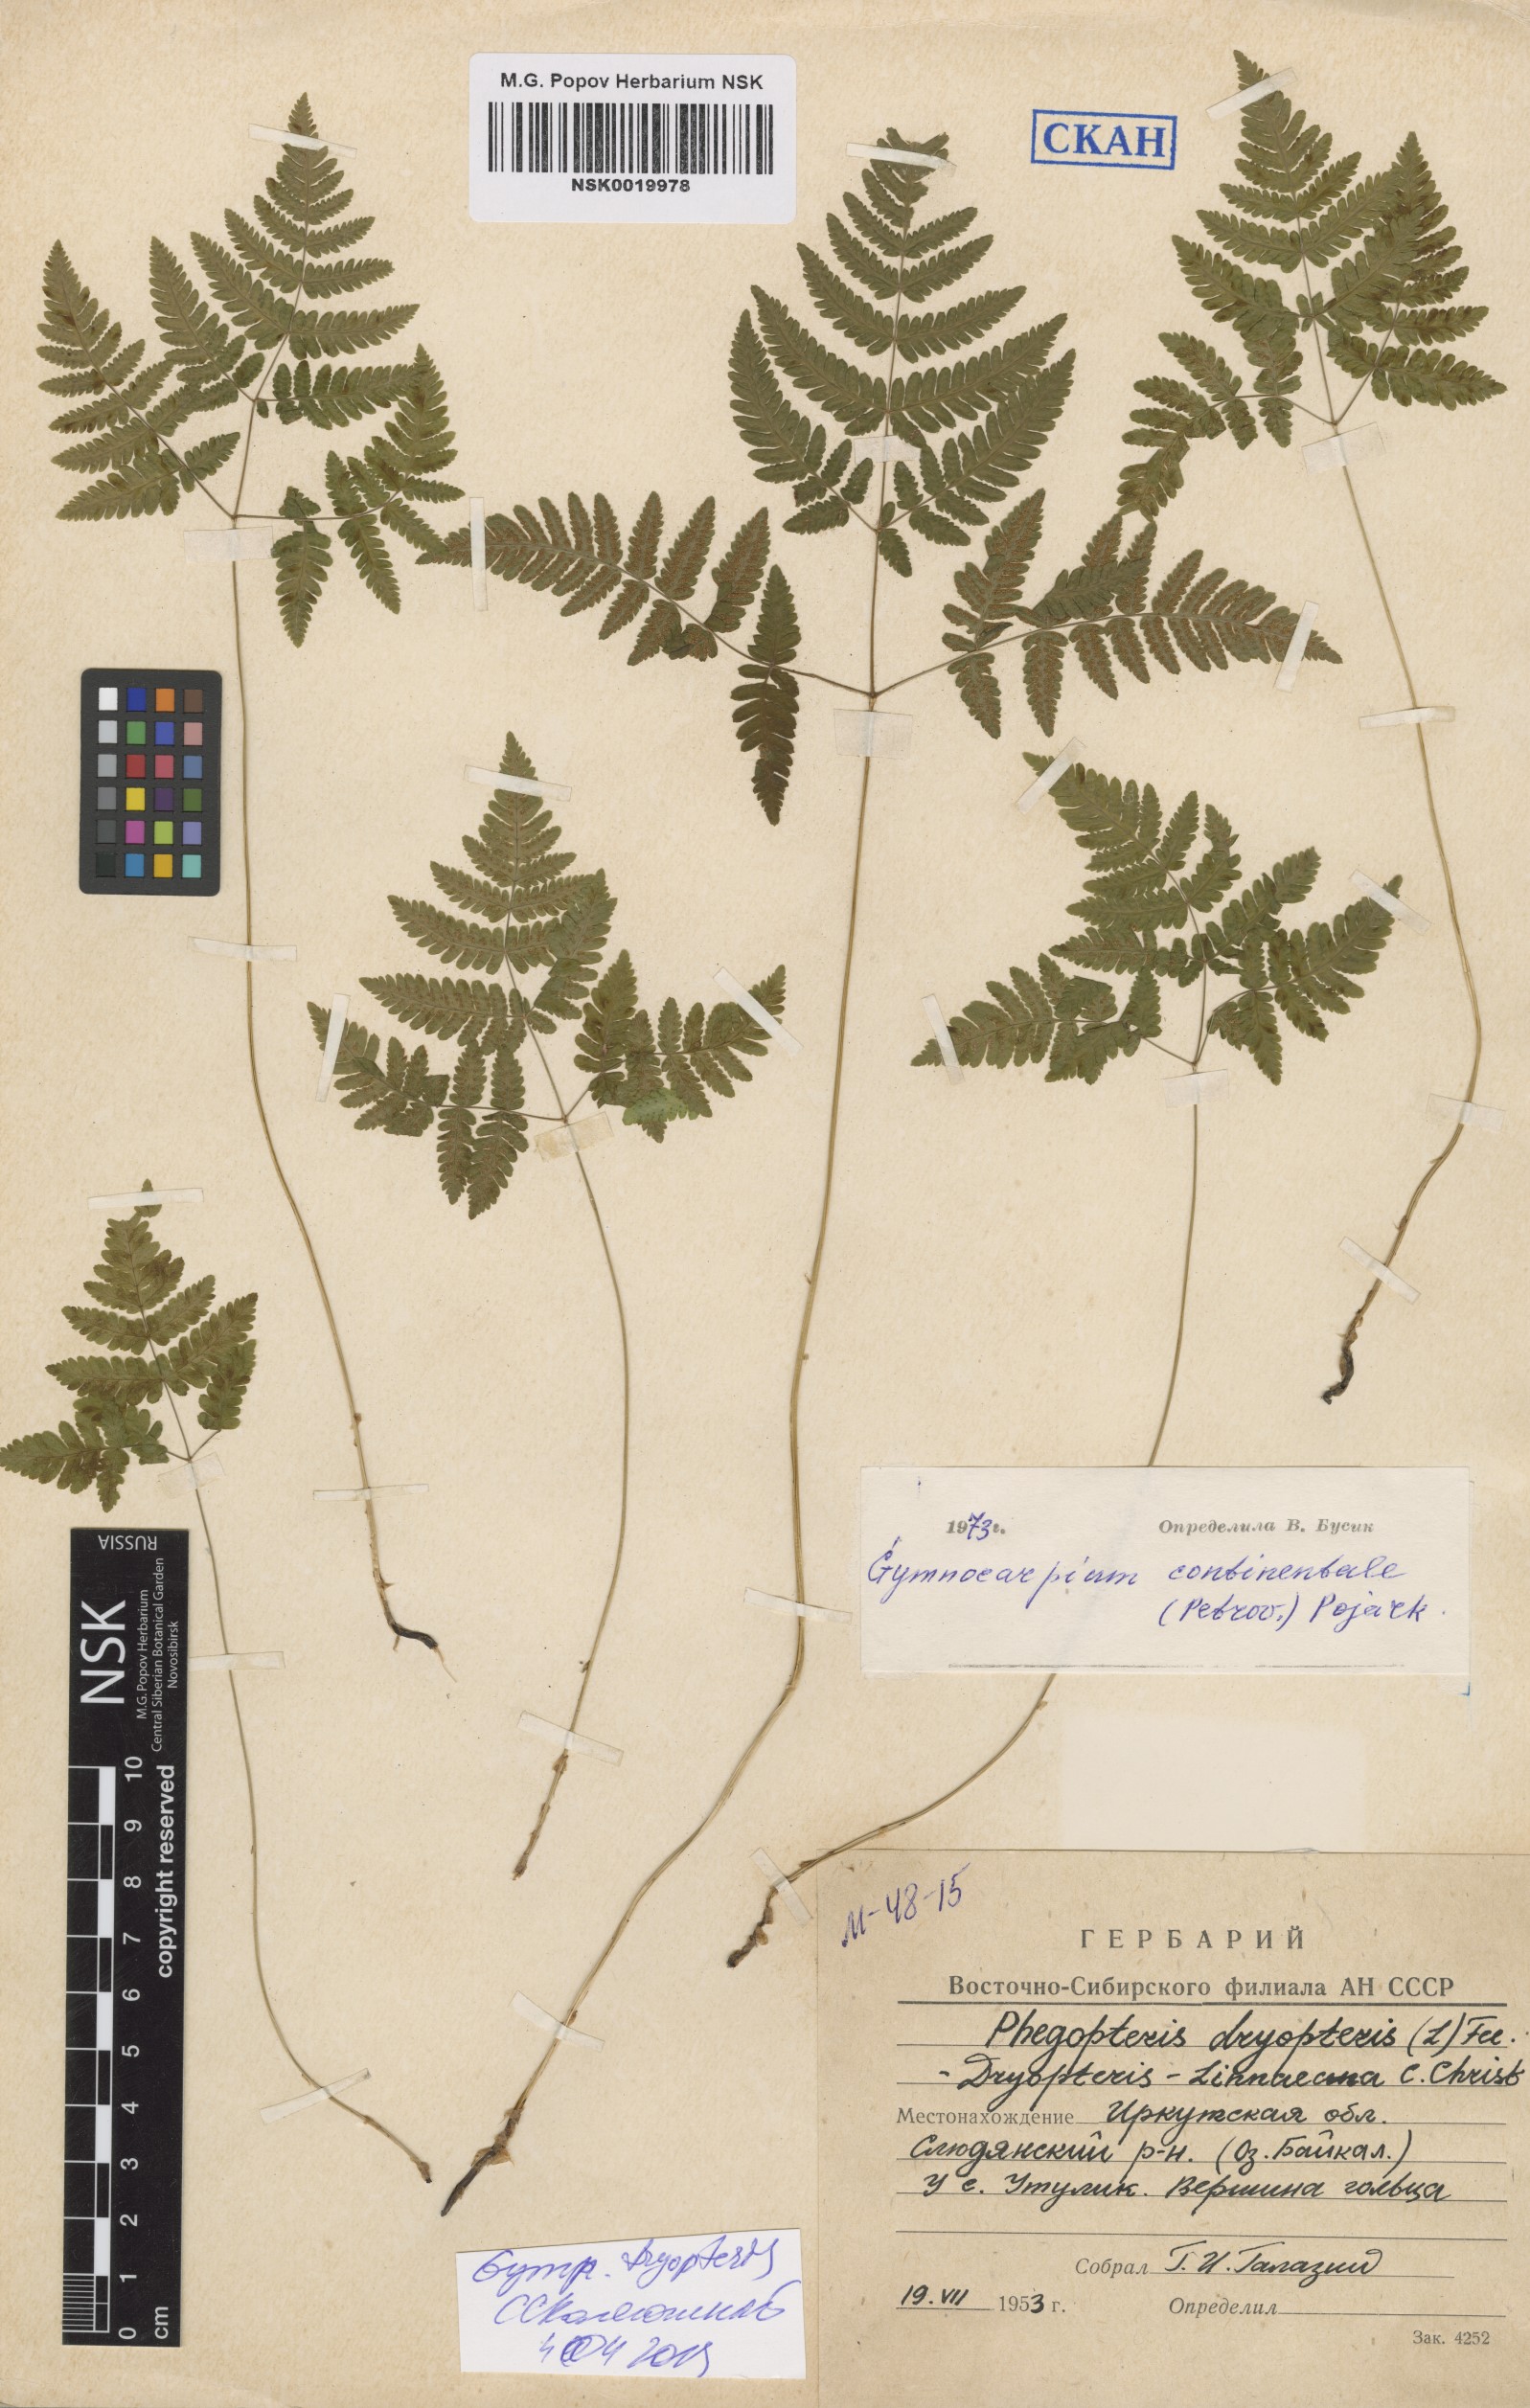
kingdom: Plantae
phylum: Tracheophyta
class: Polypodiopsida
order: Polypodiales
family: Cystopteridaceae
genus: Gymnocarpium
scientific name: Gymnocarpium dryopteris
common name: Oak fern
